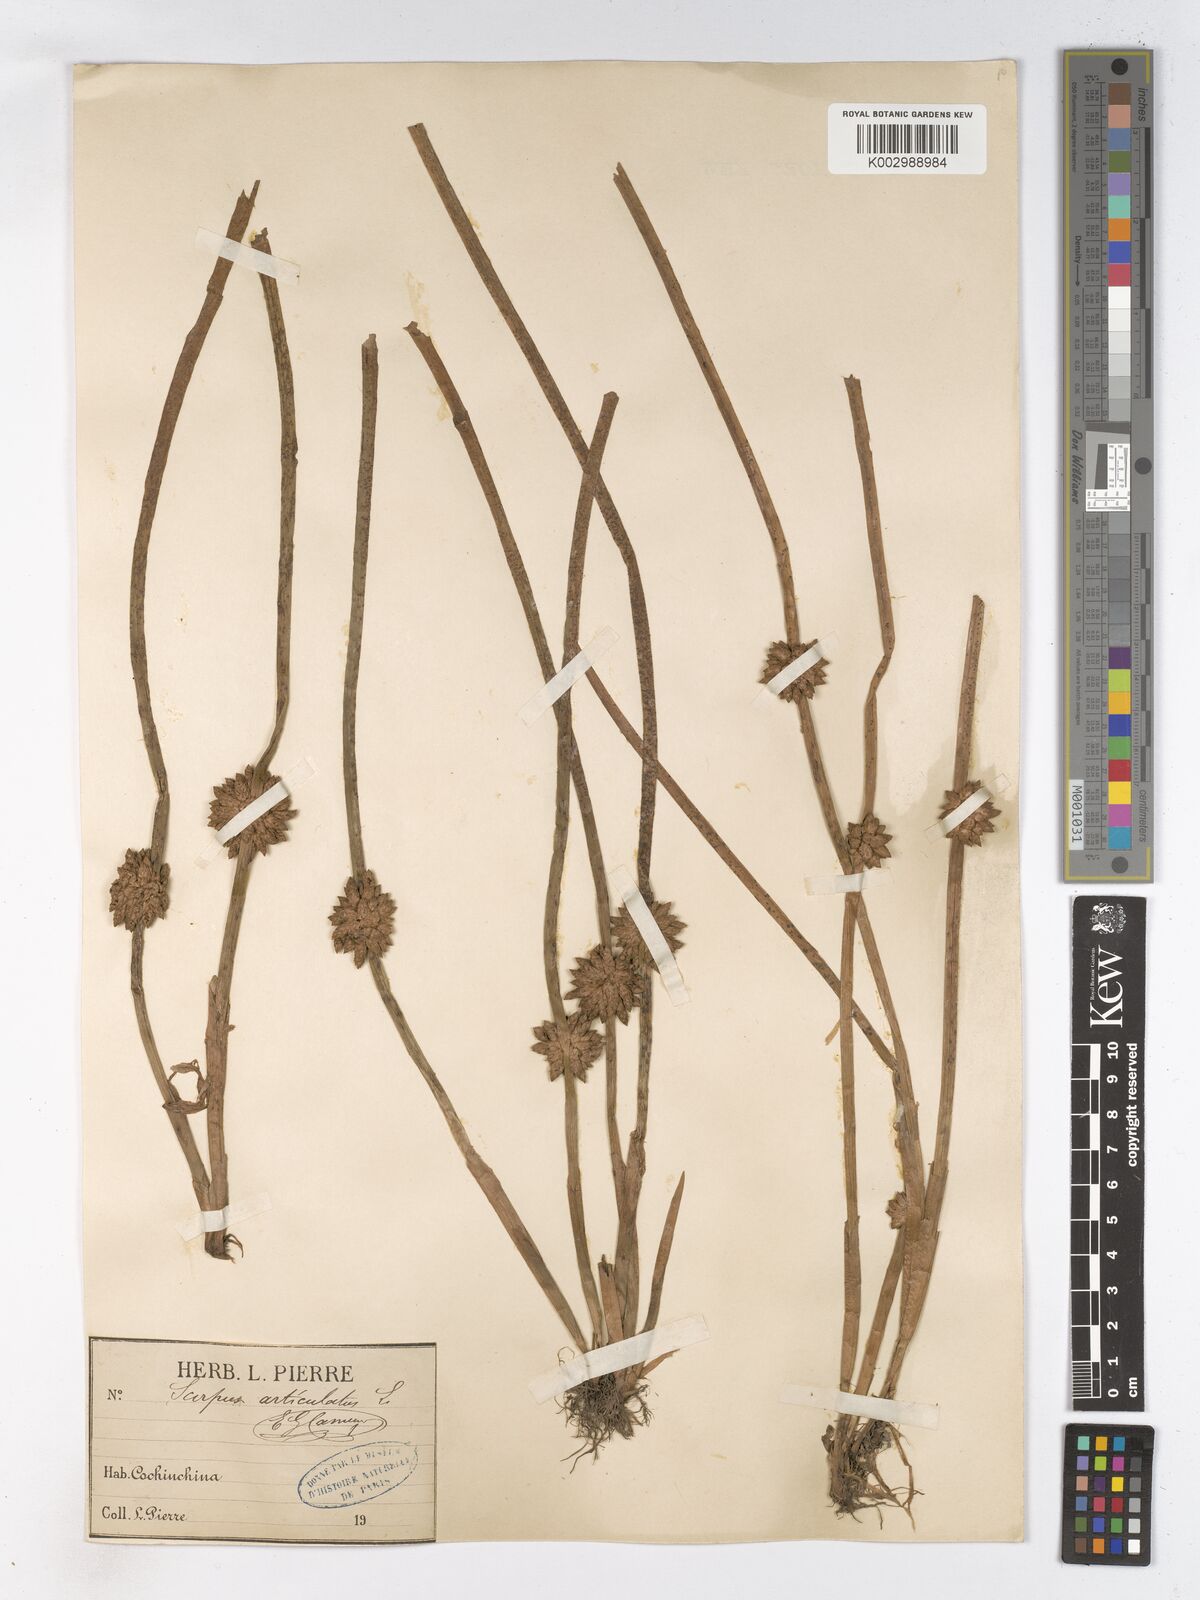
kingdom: Plantae
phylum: Tracheophyta
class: Liliopsida
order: Poales
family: Cyperaceae
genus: Schoenoplectiella
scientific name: Schoenoplectiella articulata
